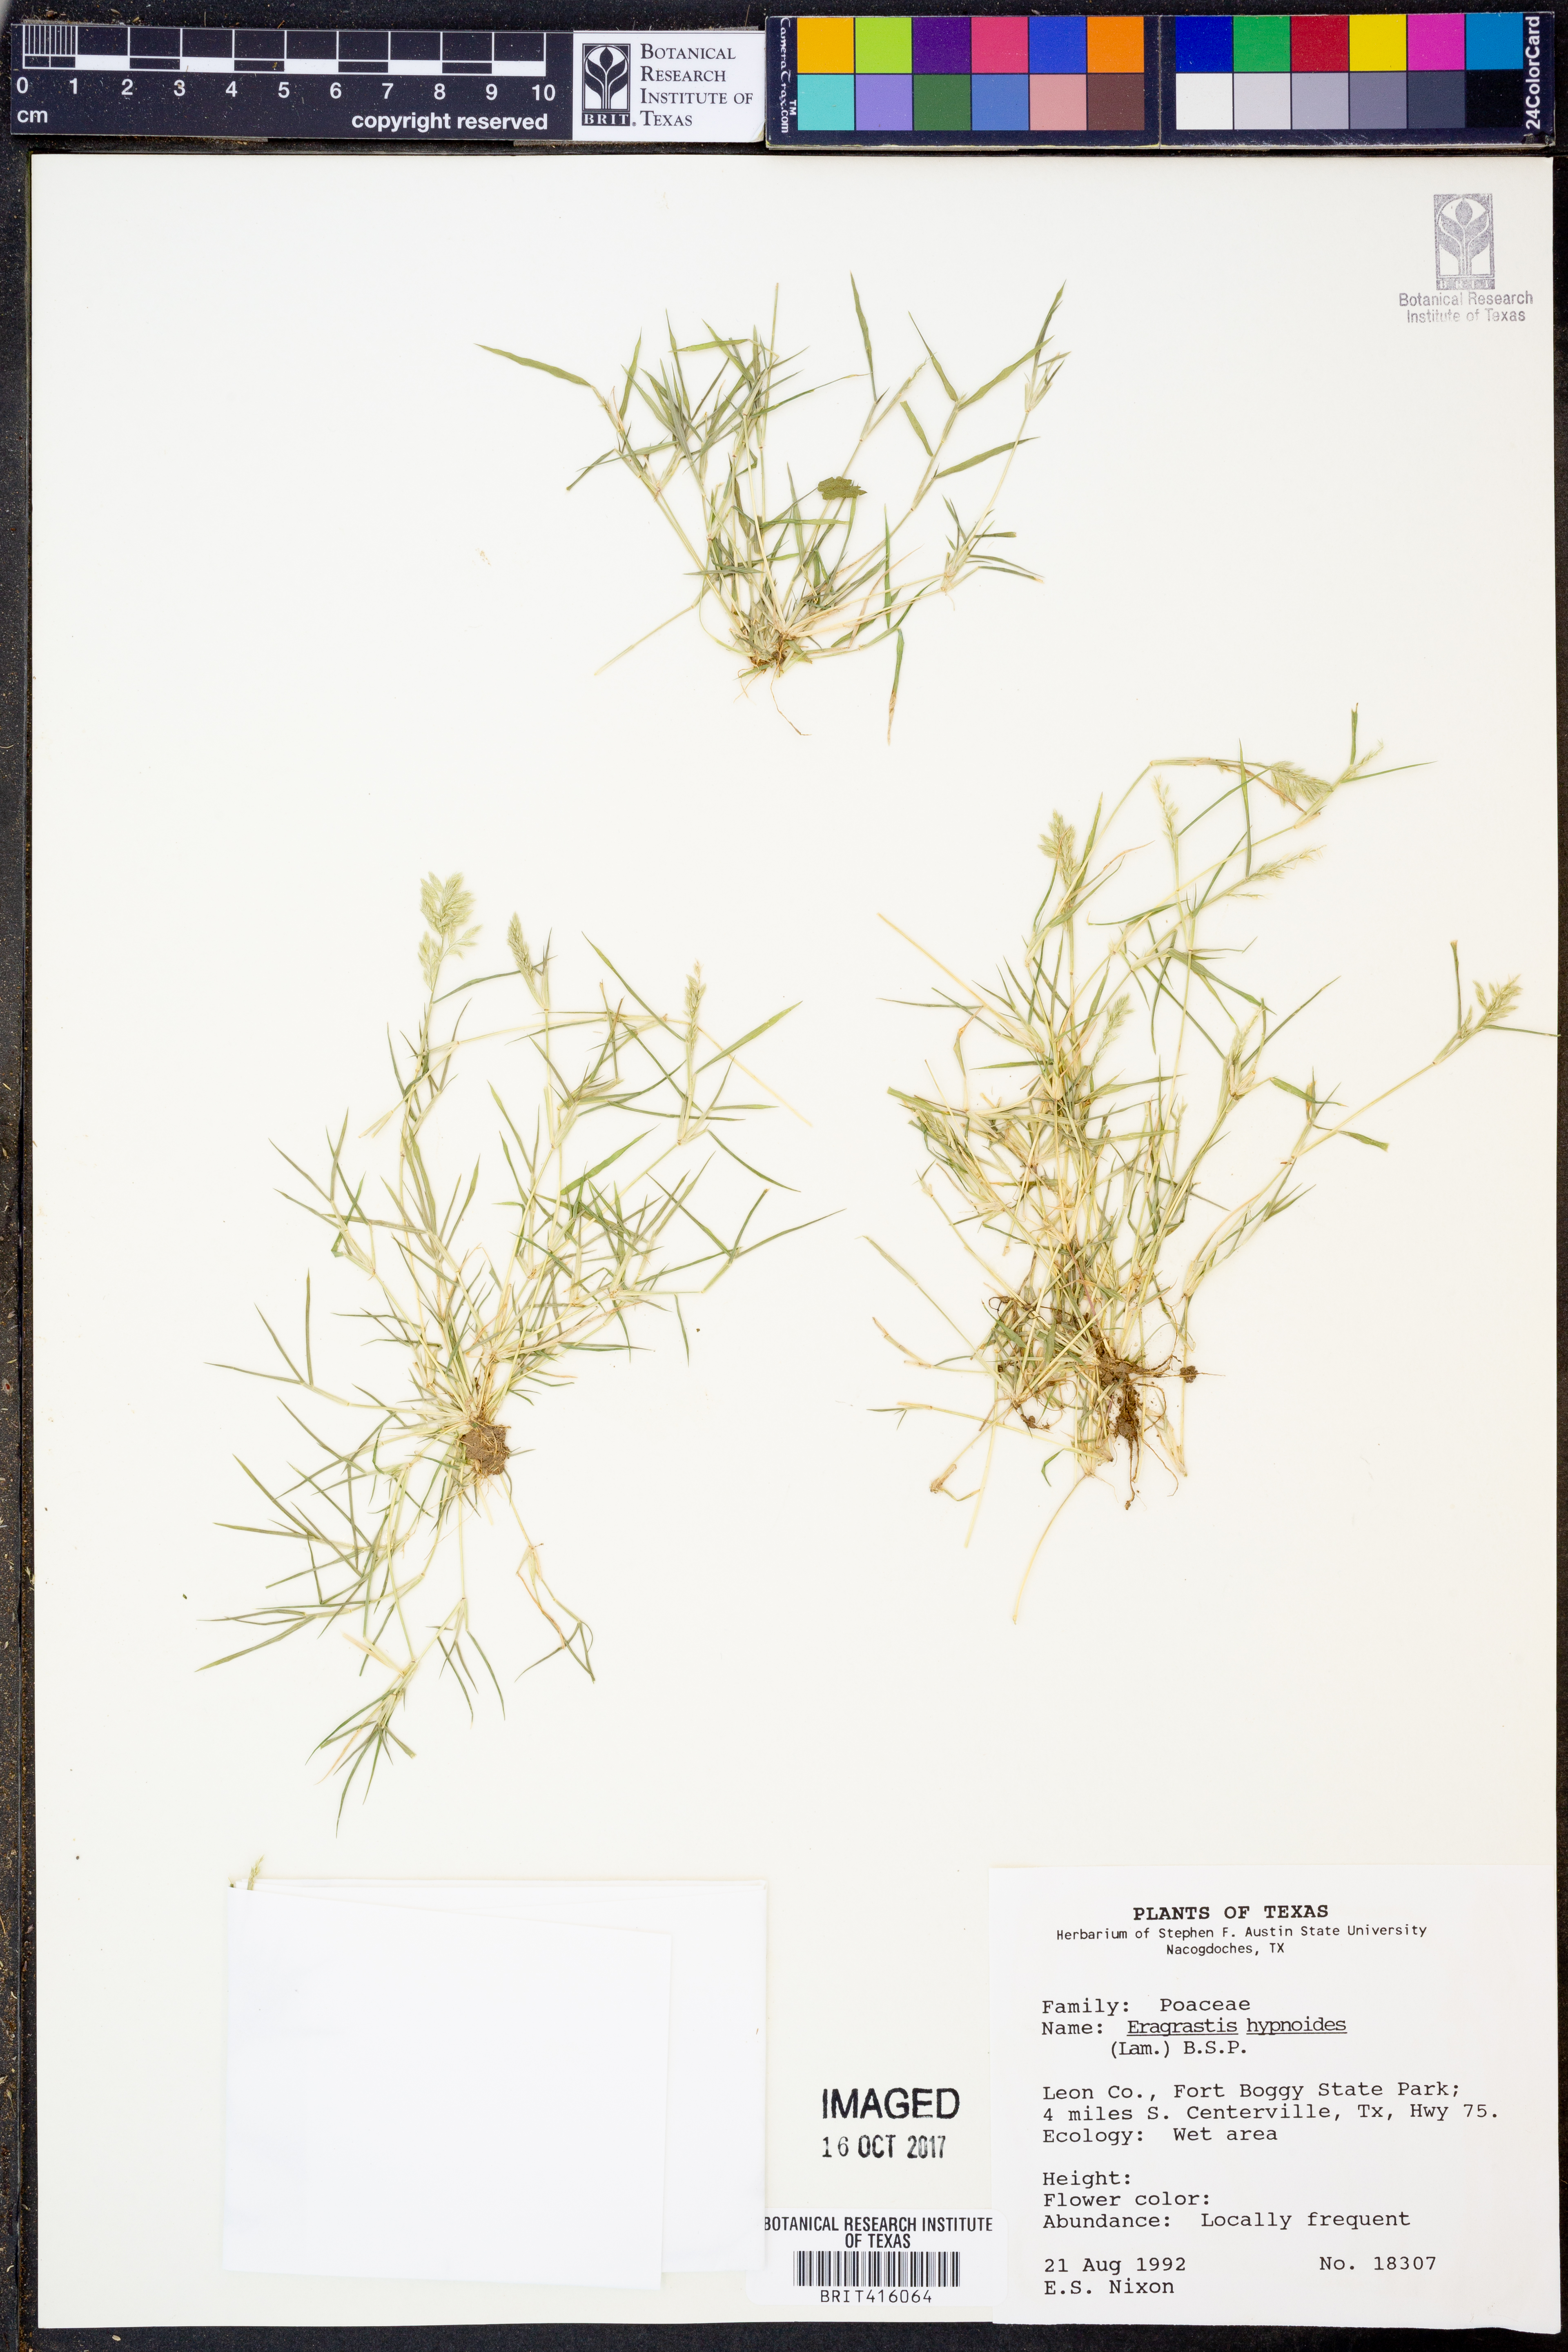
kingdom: Plantae
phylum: Tracheophyta
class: Liliopsida
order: Poales
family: Poaceae
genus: Eragrostis
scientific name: Eragrostis hypnoides
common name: Creeping love grass
